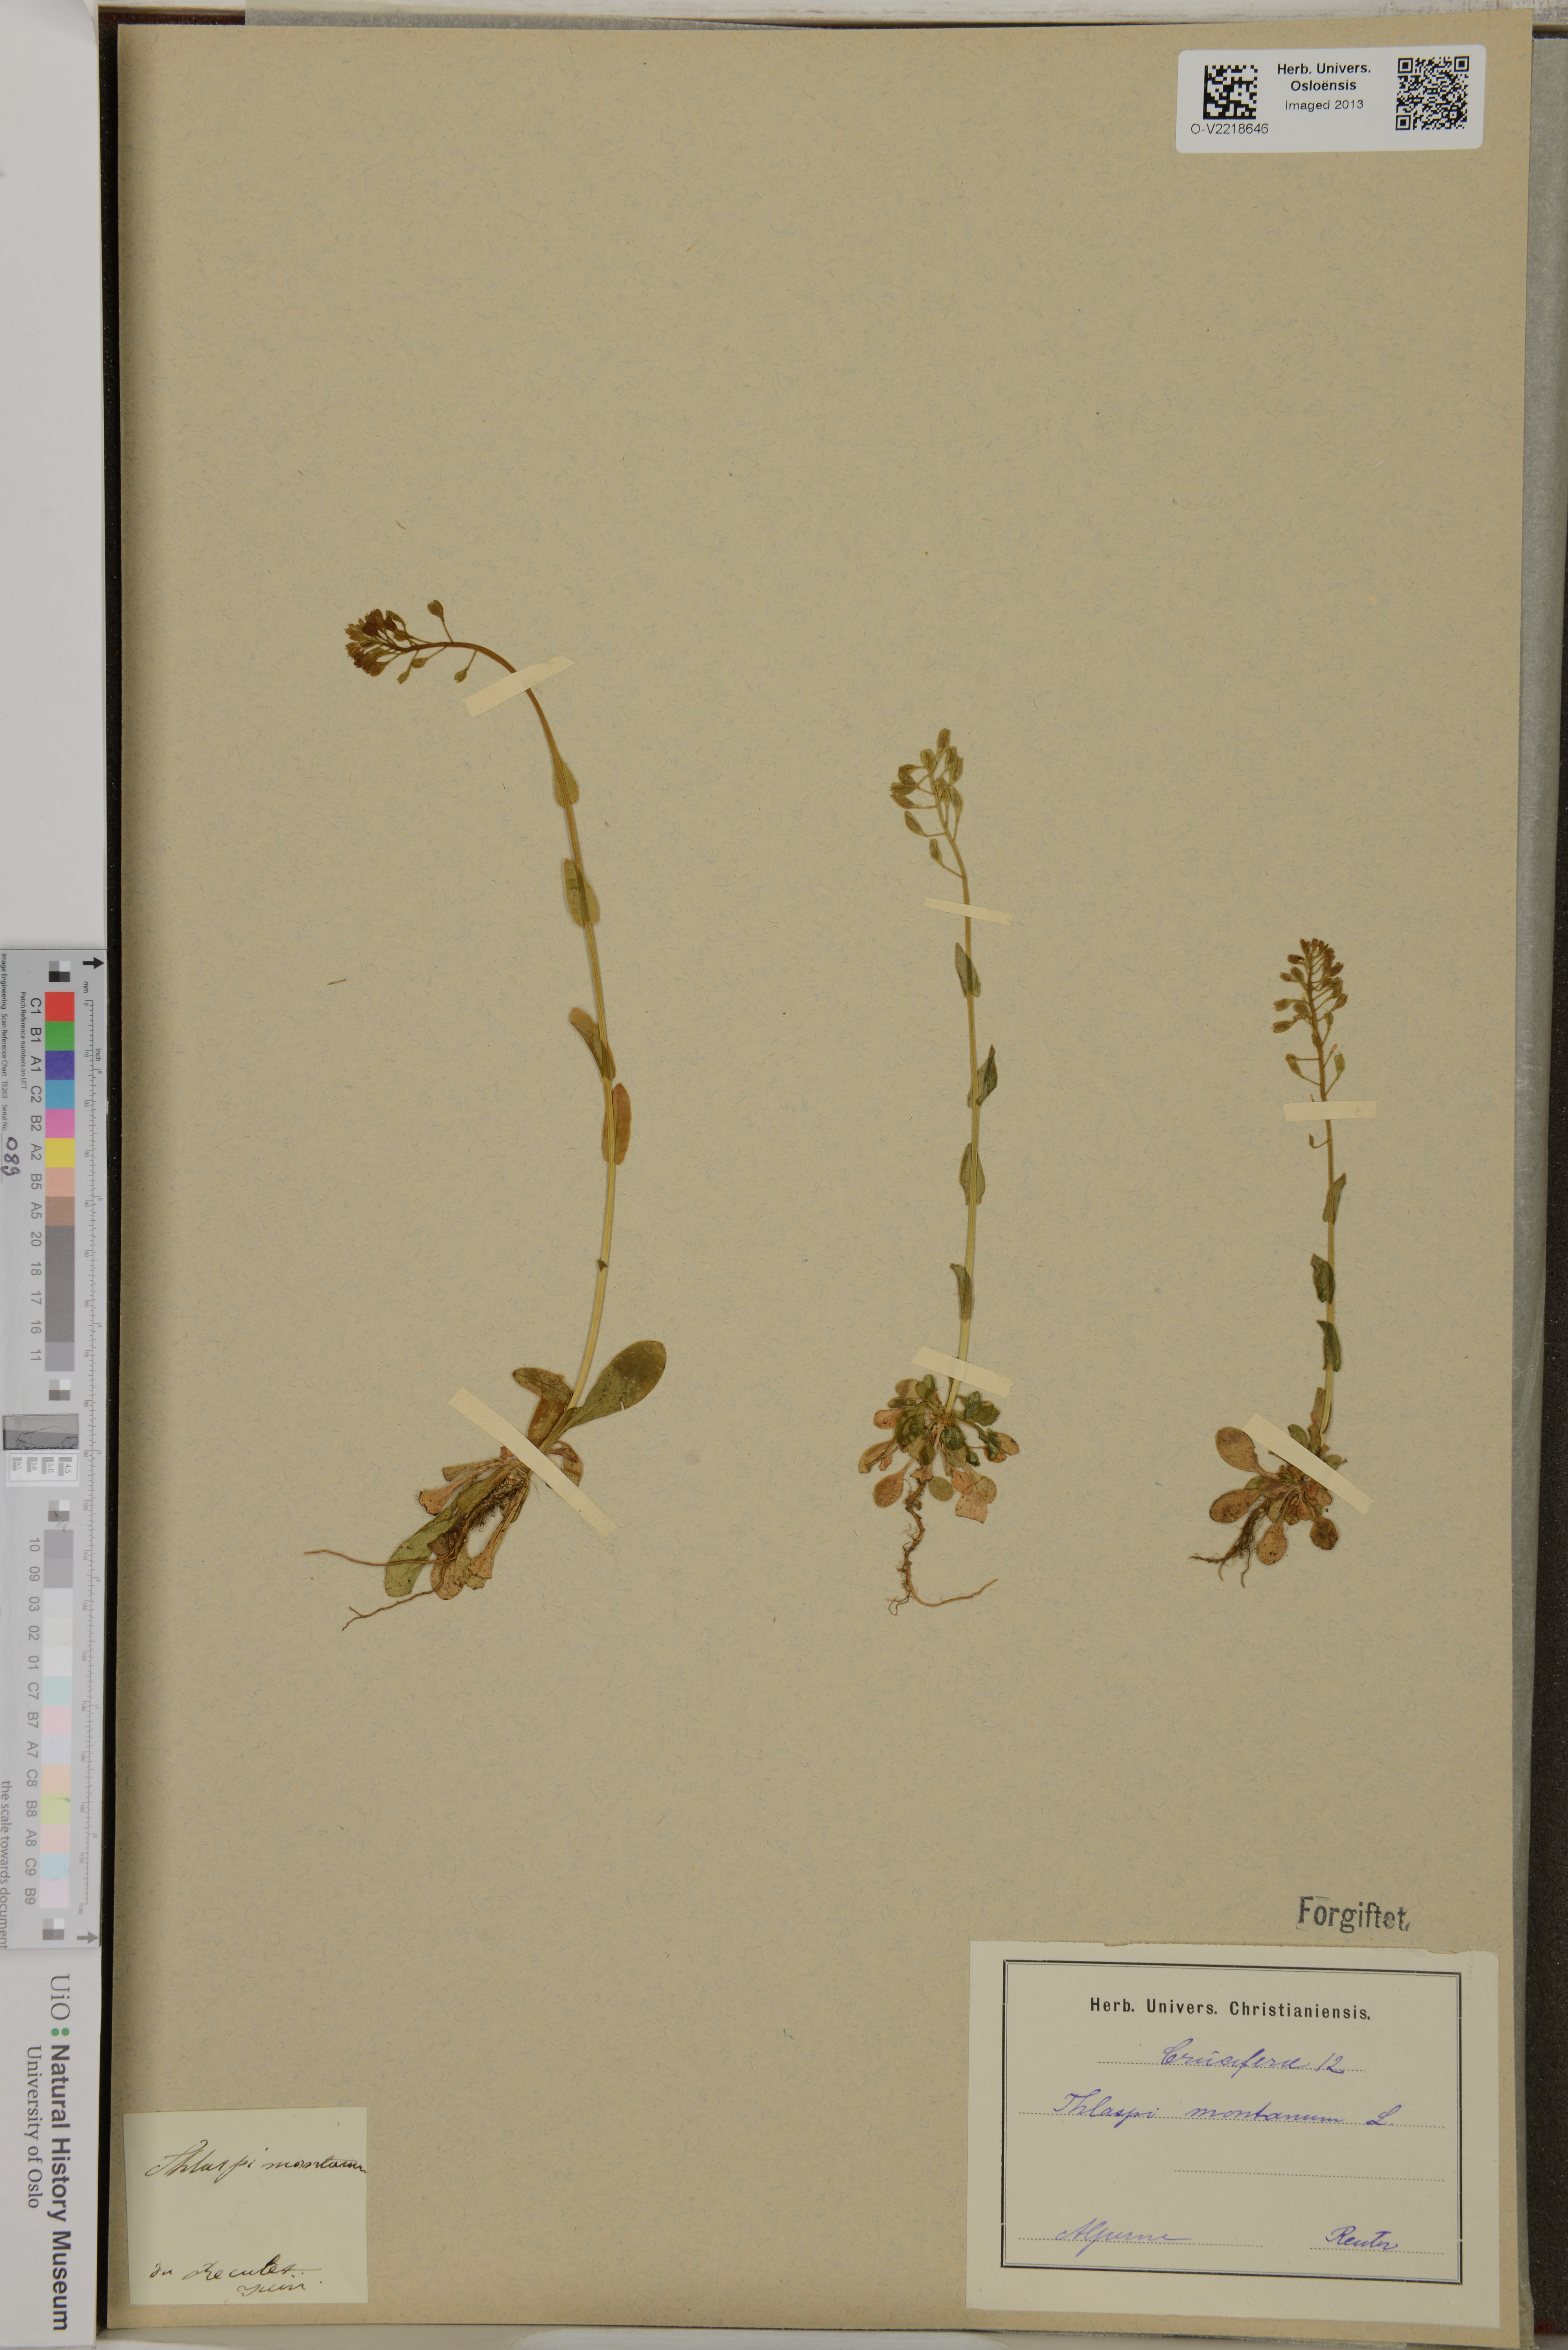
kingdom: Plantae
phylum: Tracheophyta
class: Magnoliopsida
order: Brassicales
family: Brassicaceae
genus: Noccaea
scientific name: Noccaea montana
